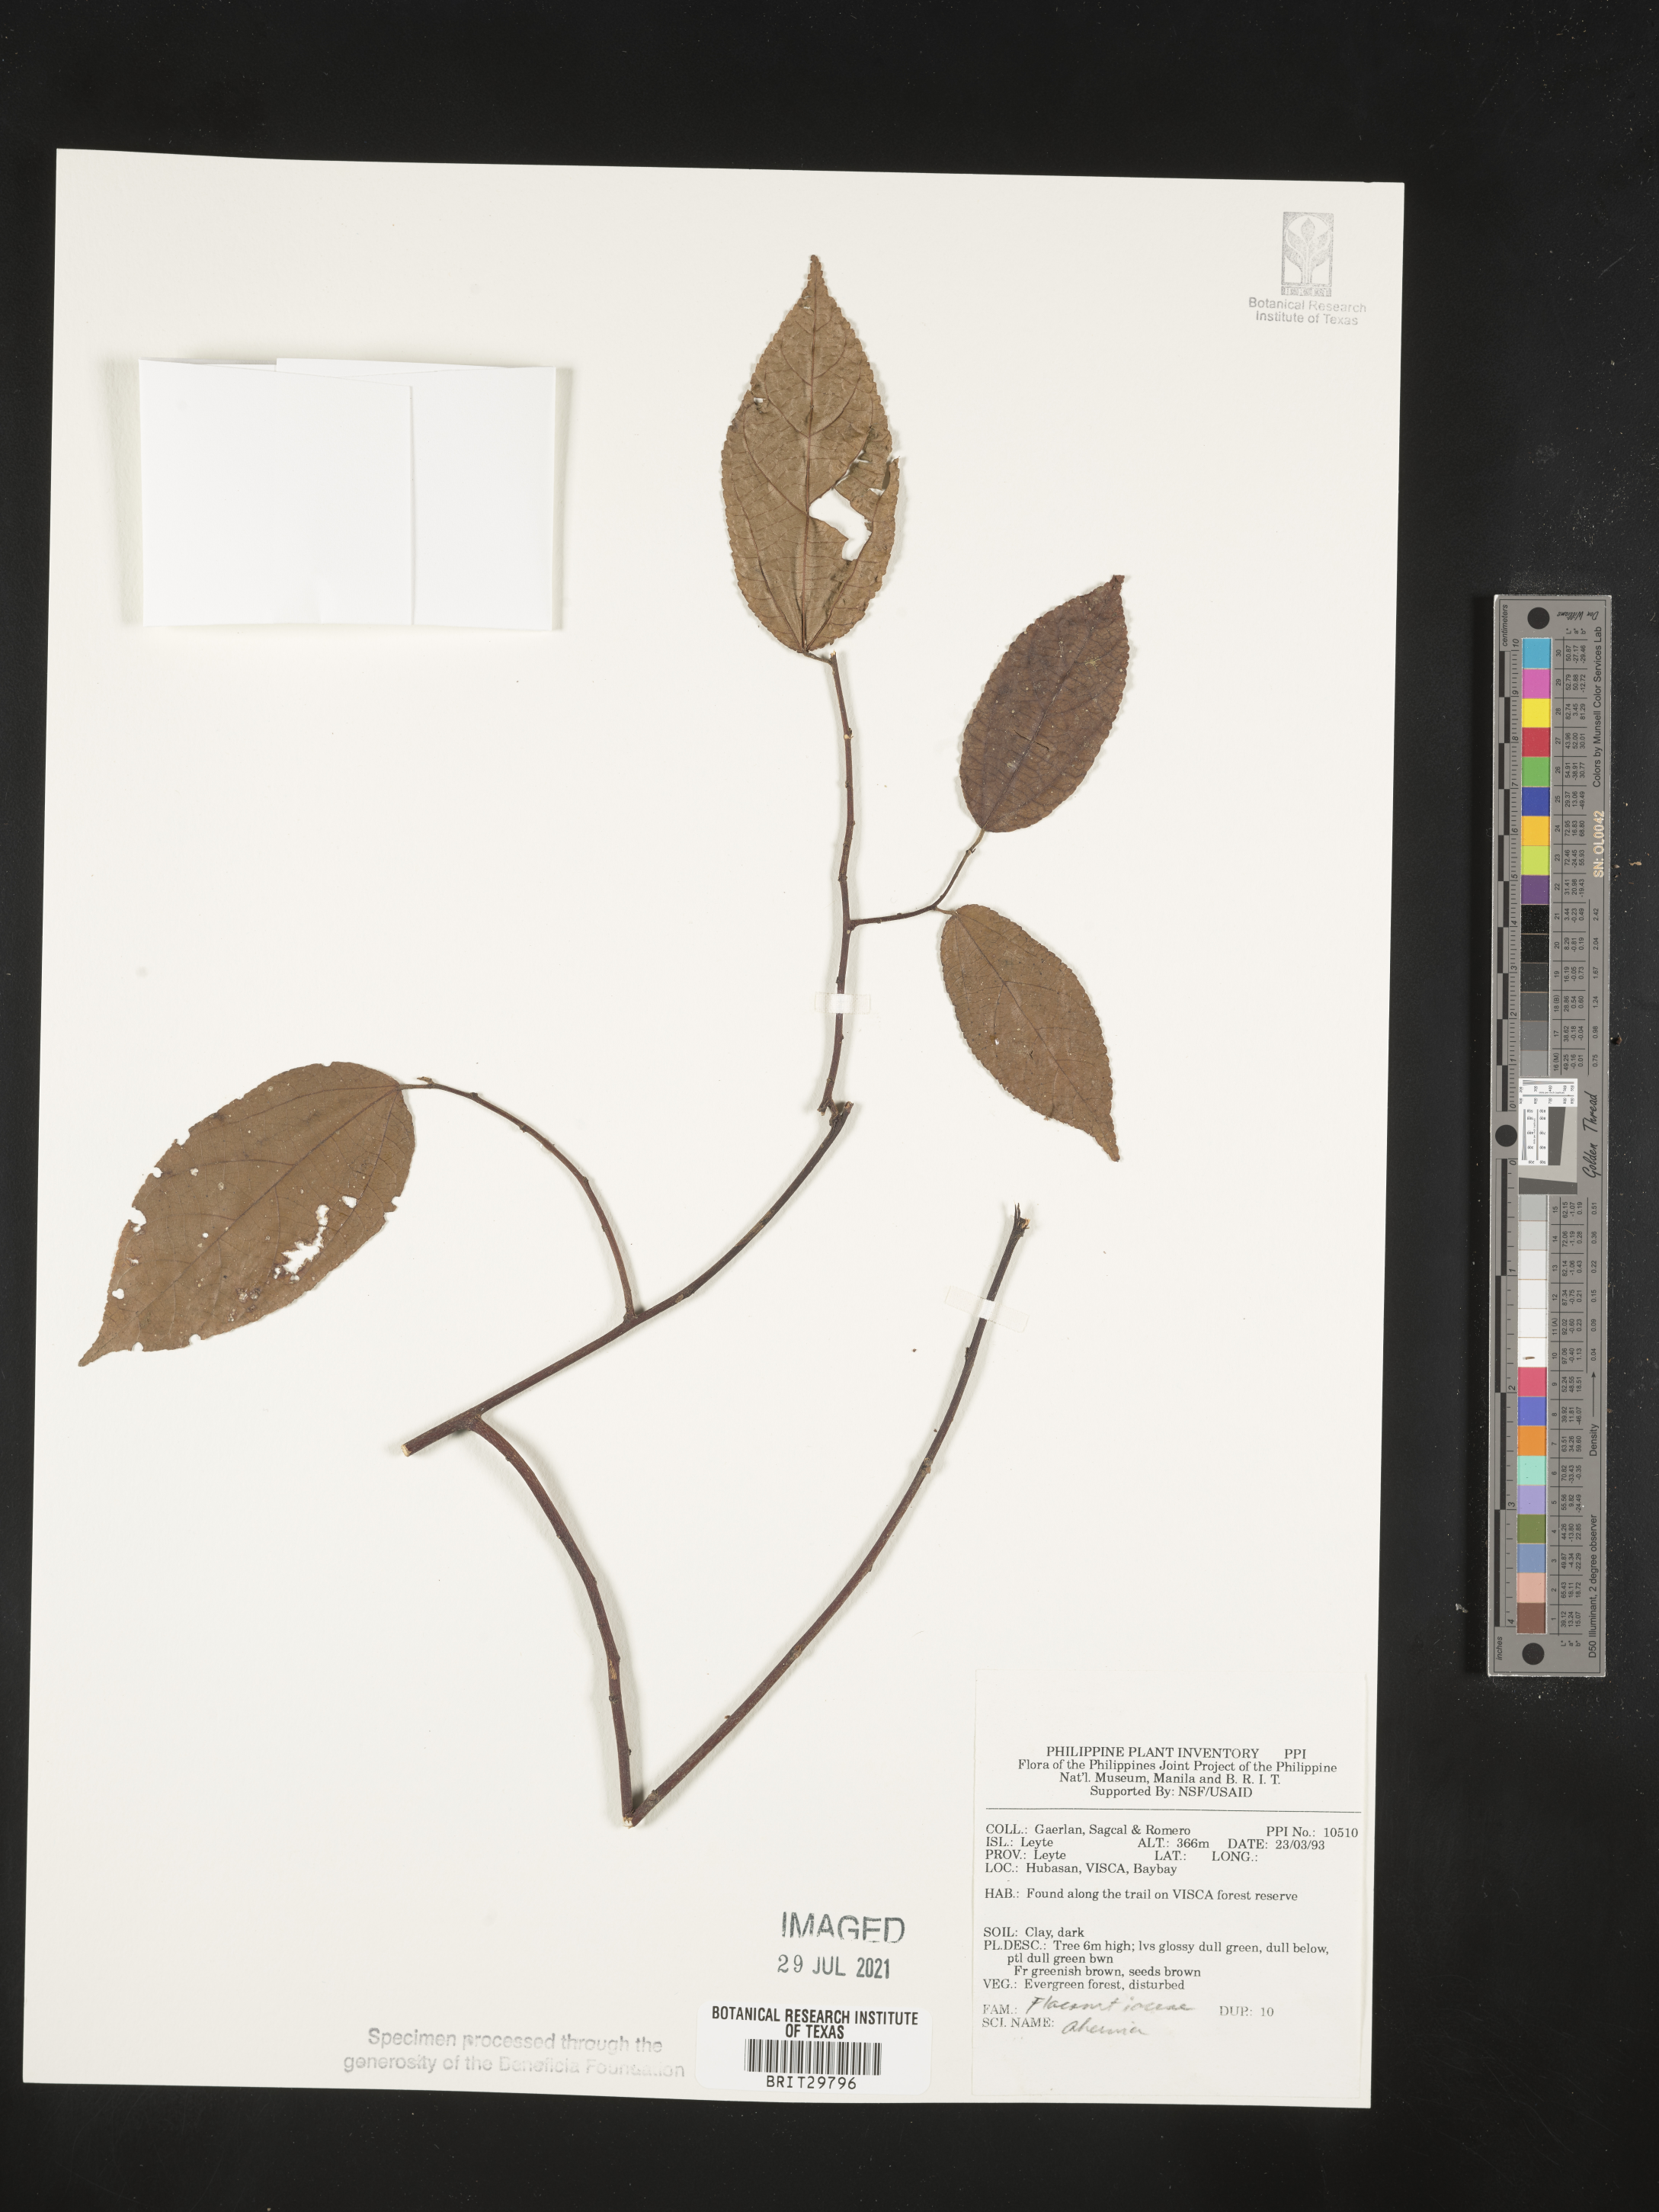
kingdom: Plantae
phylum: Tracheophyta
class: Magnoliopsida
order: Malpighiales
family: Achariaceae
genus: Ahernia
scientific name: Ahernia
